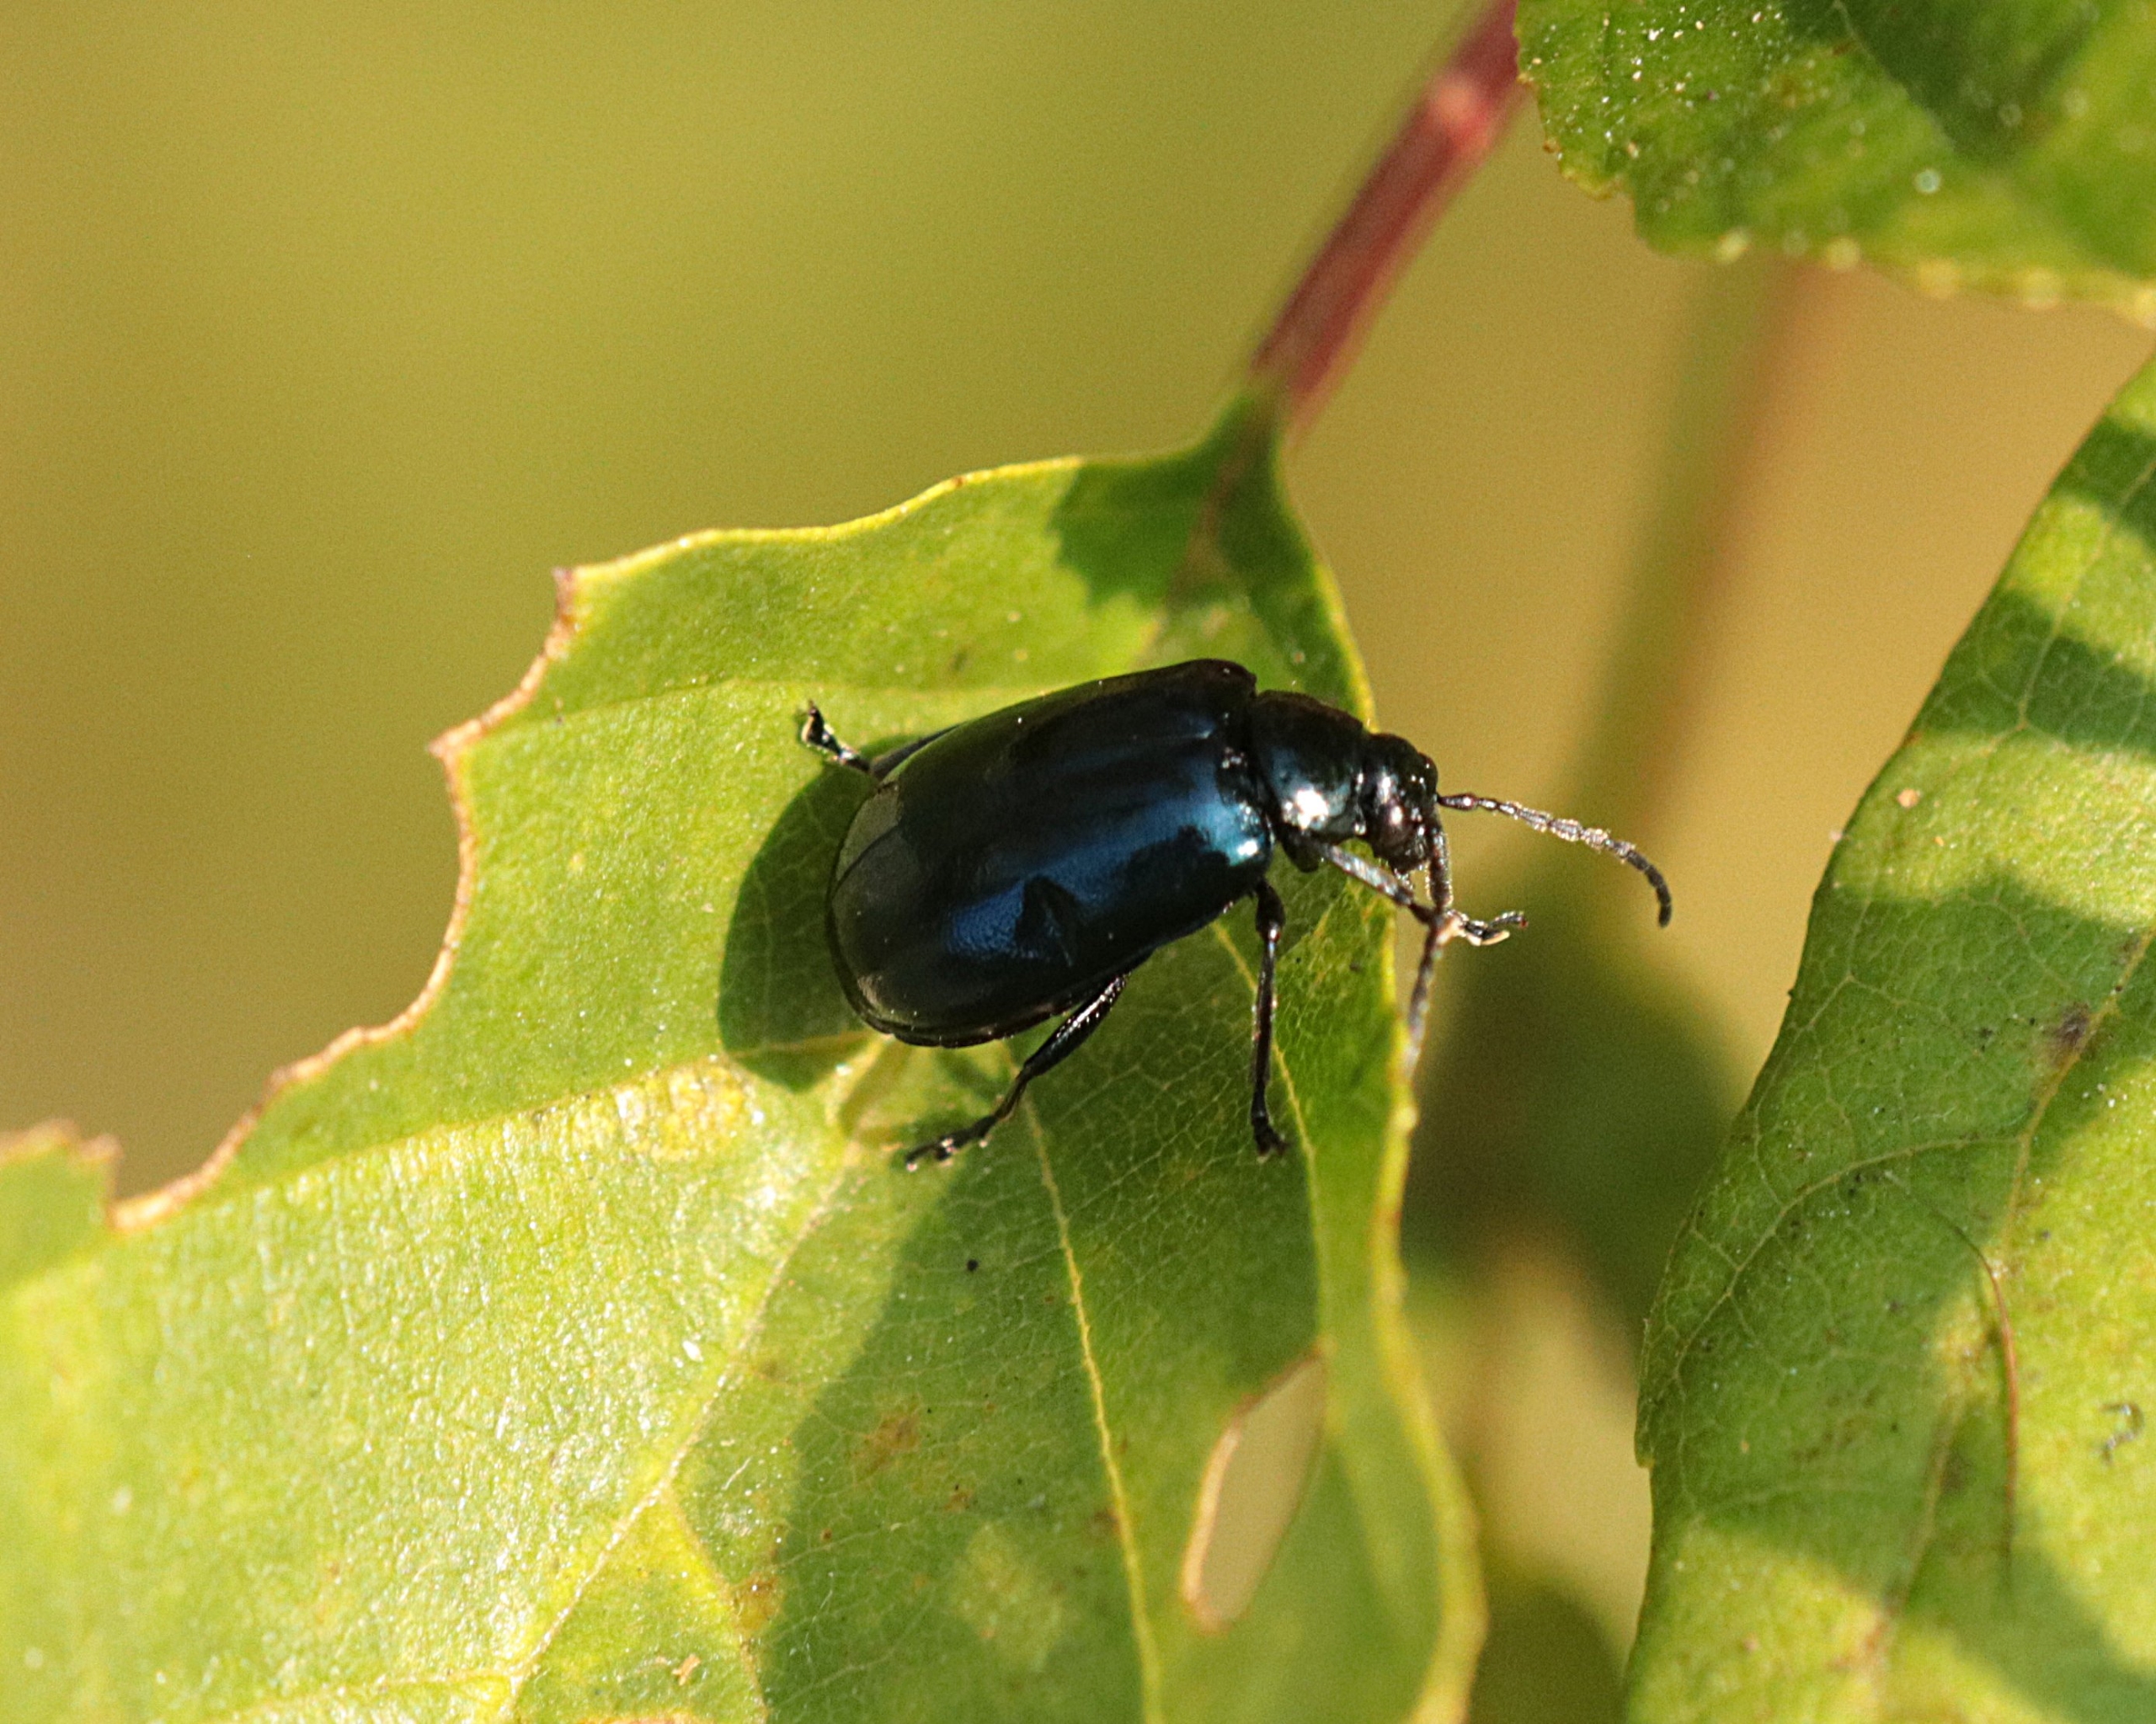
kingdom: Animalia
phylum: Arthropoda
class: Insecta
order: Coleoptera
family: Chrysomelidae
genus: Agelastica
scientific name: Agelastica alni
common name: Ellebladbille
